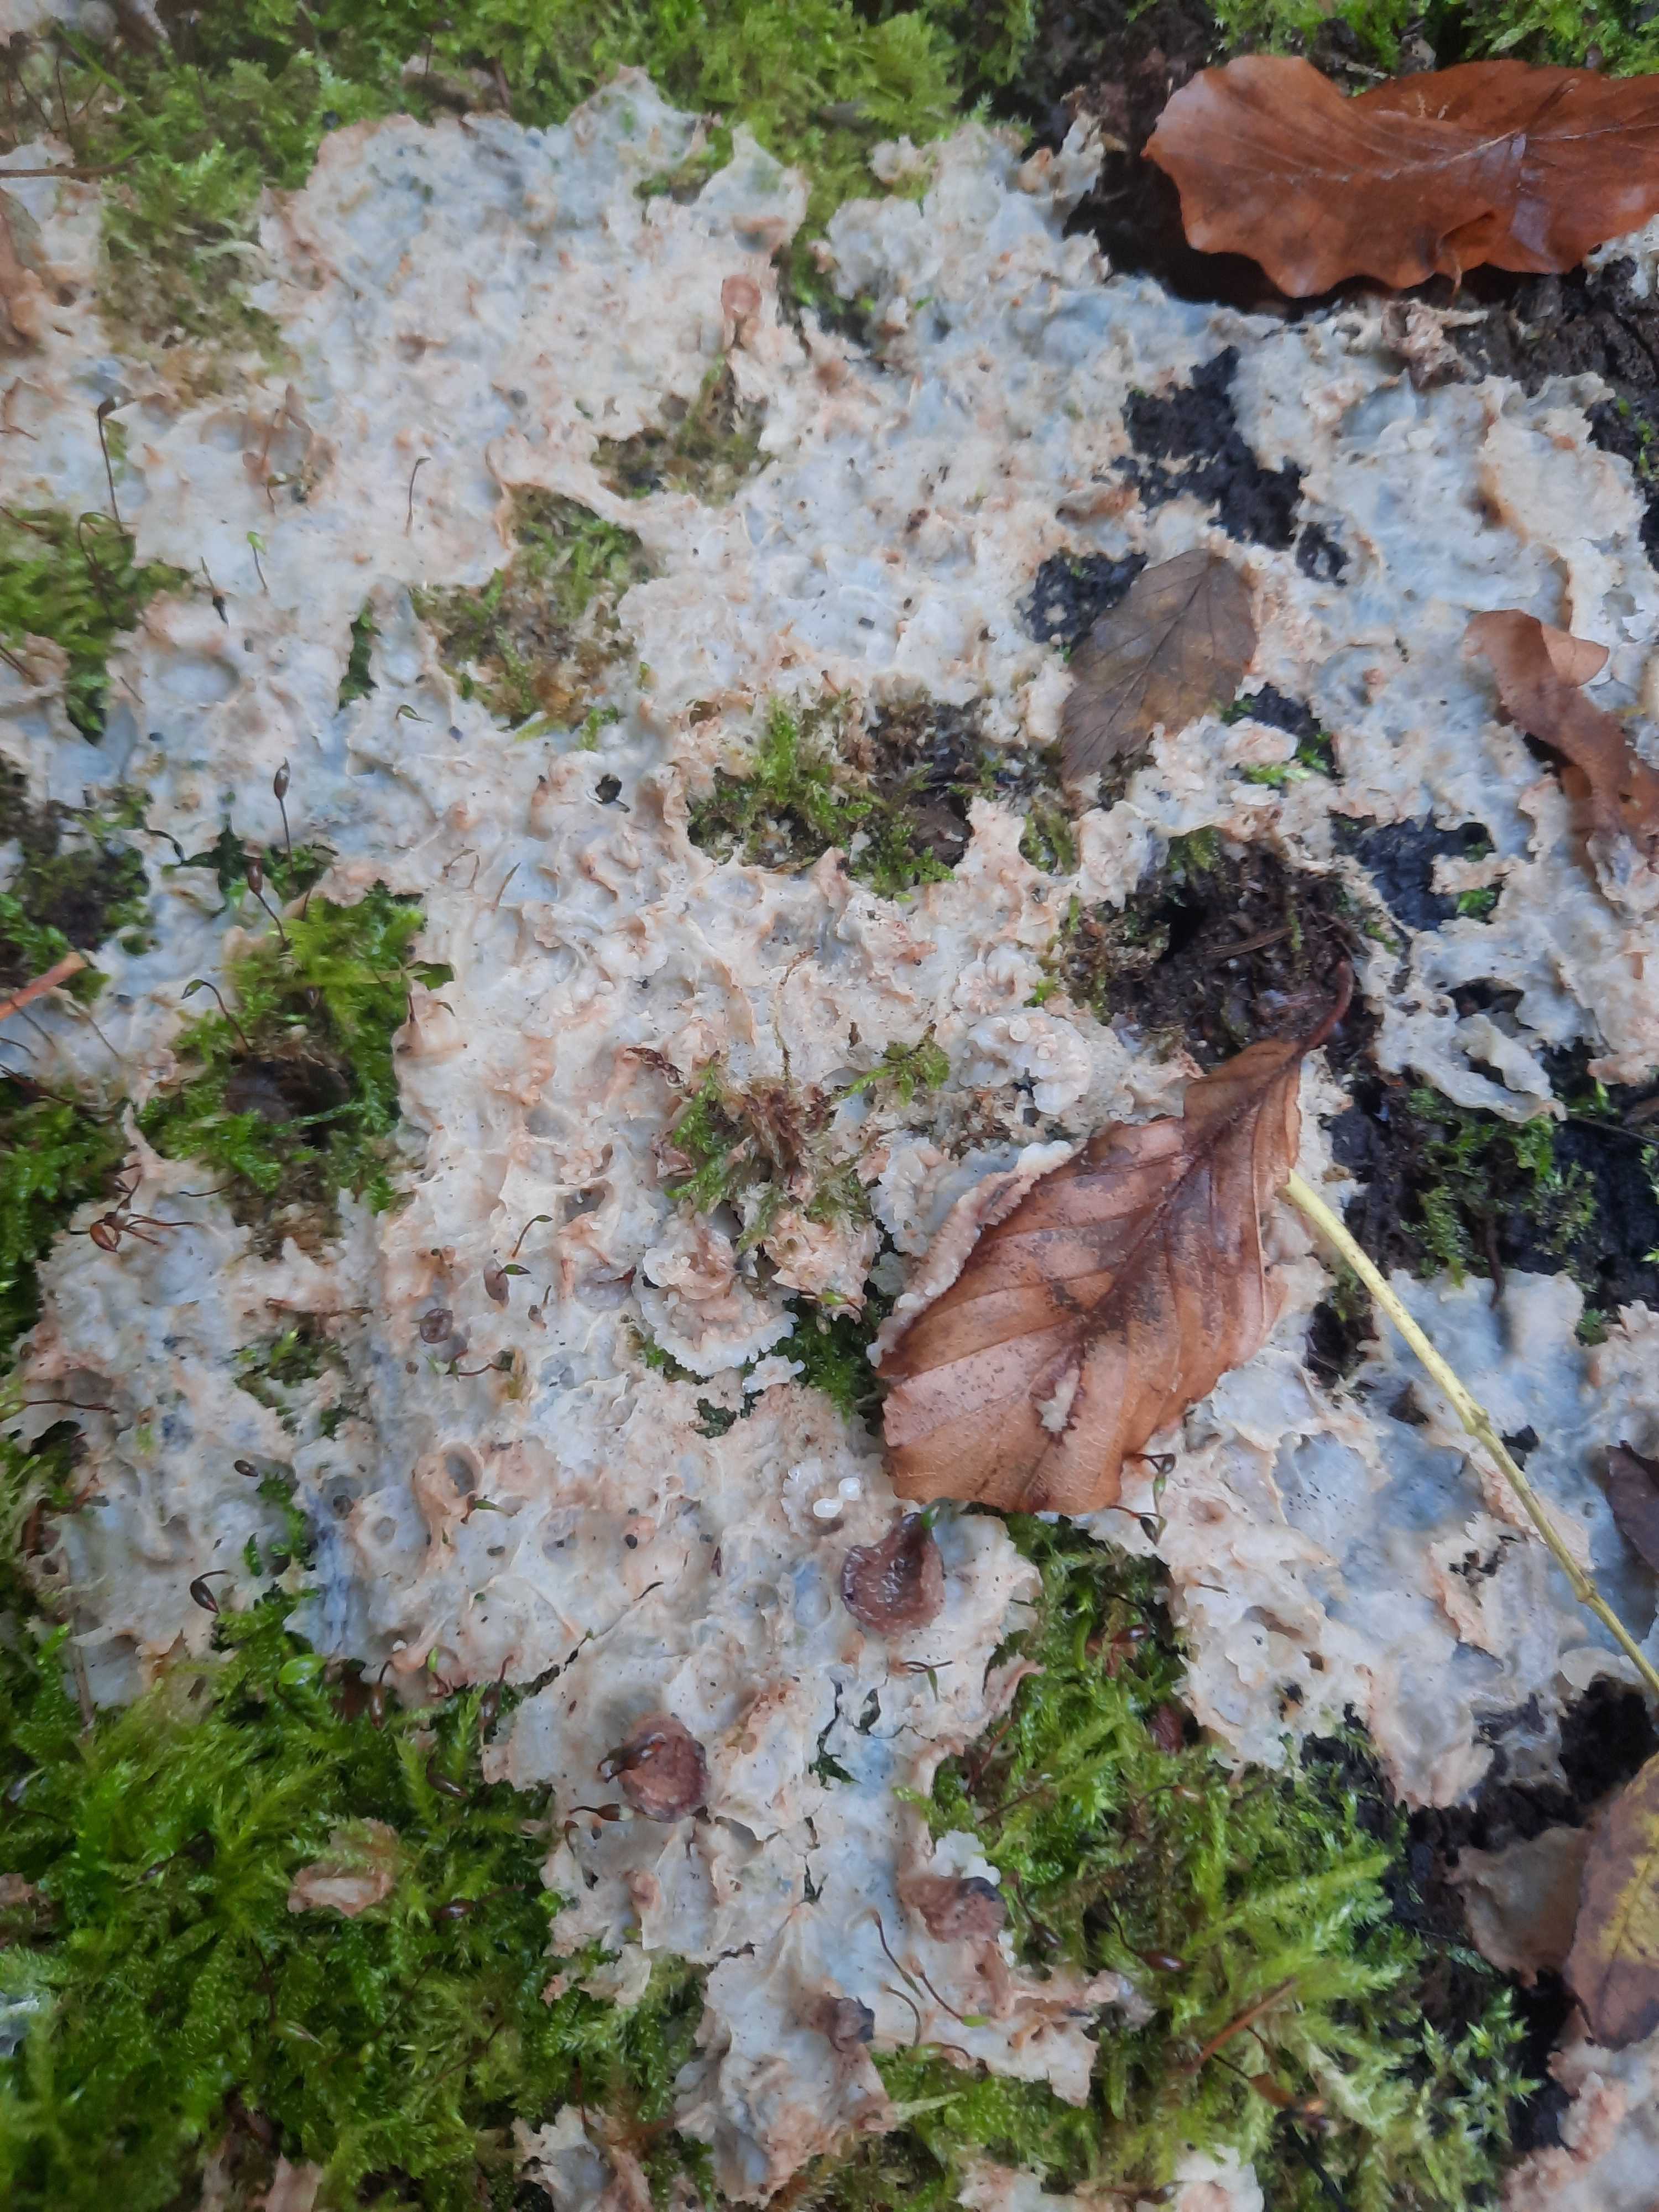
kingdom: Fungi
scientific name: Fungi
